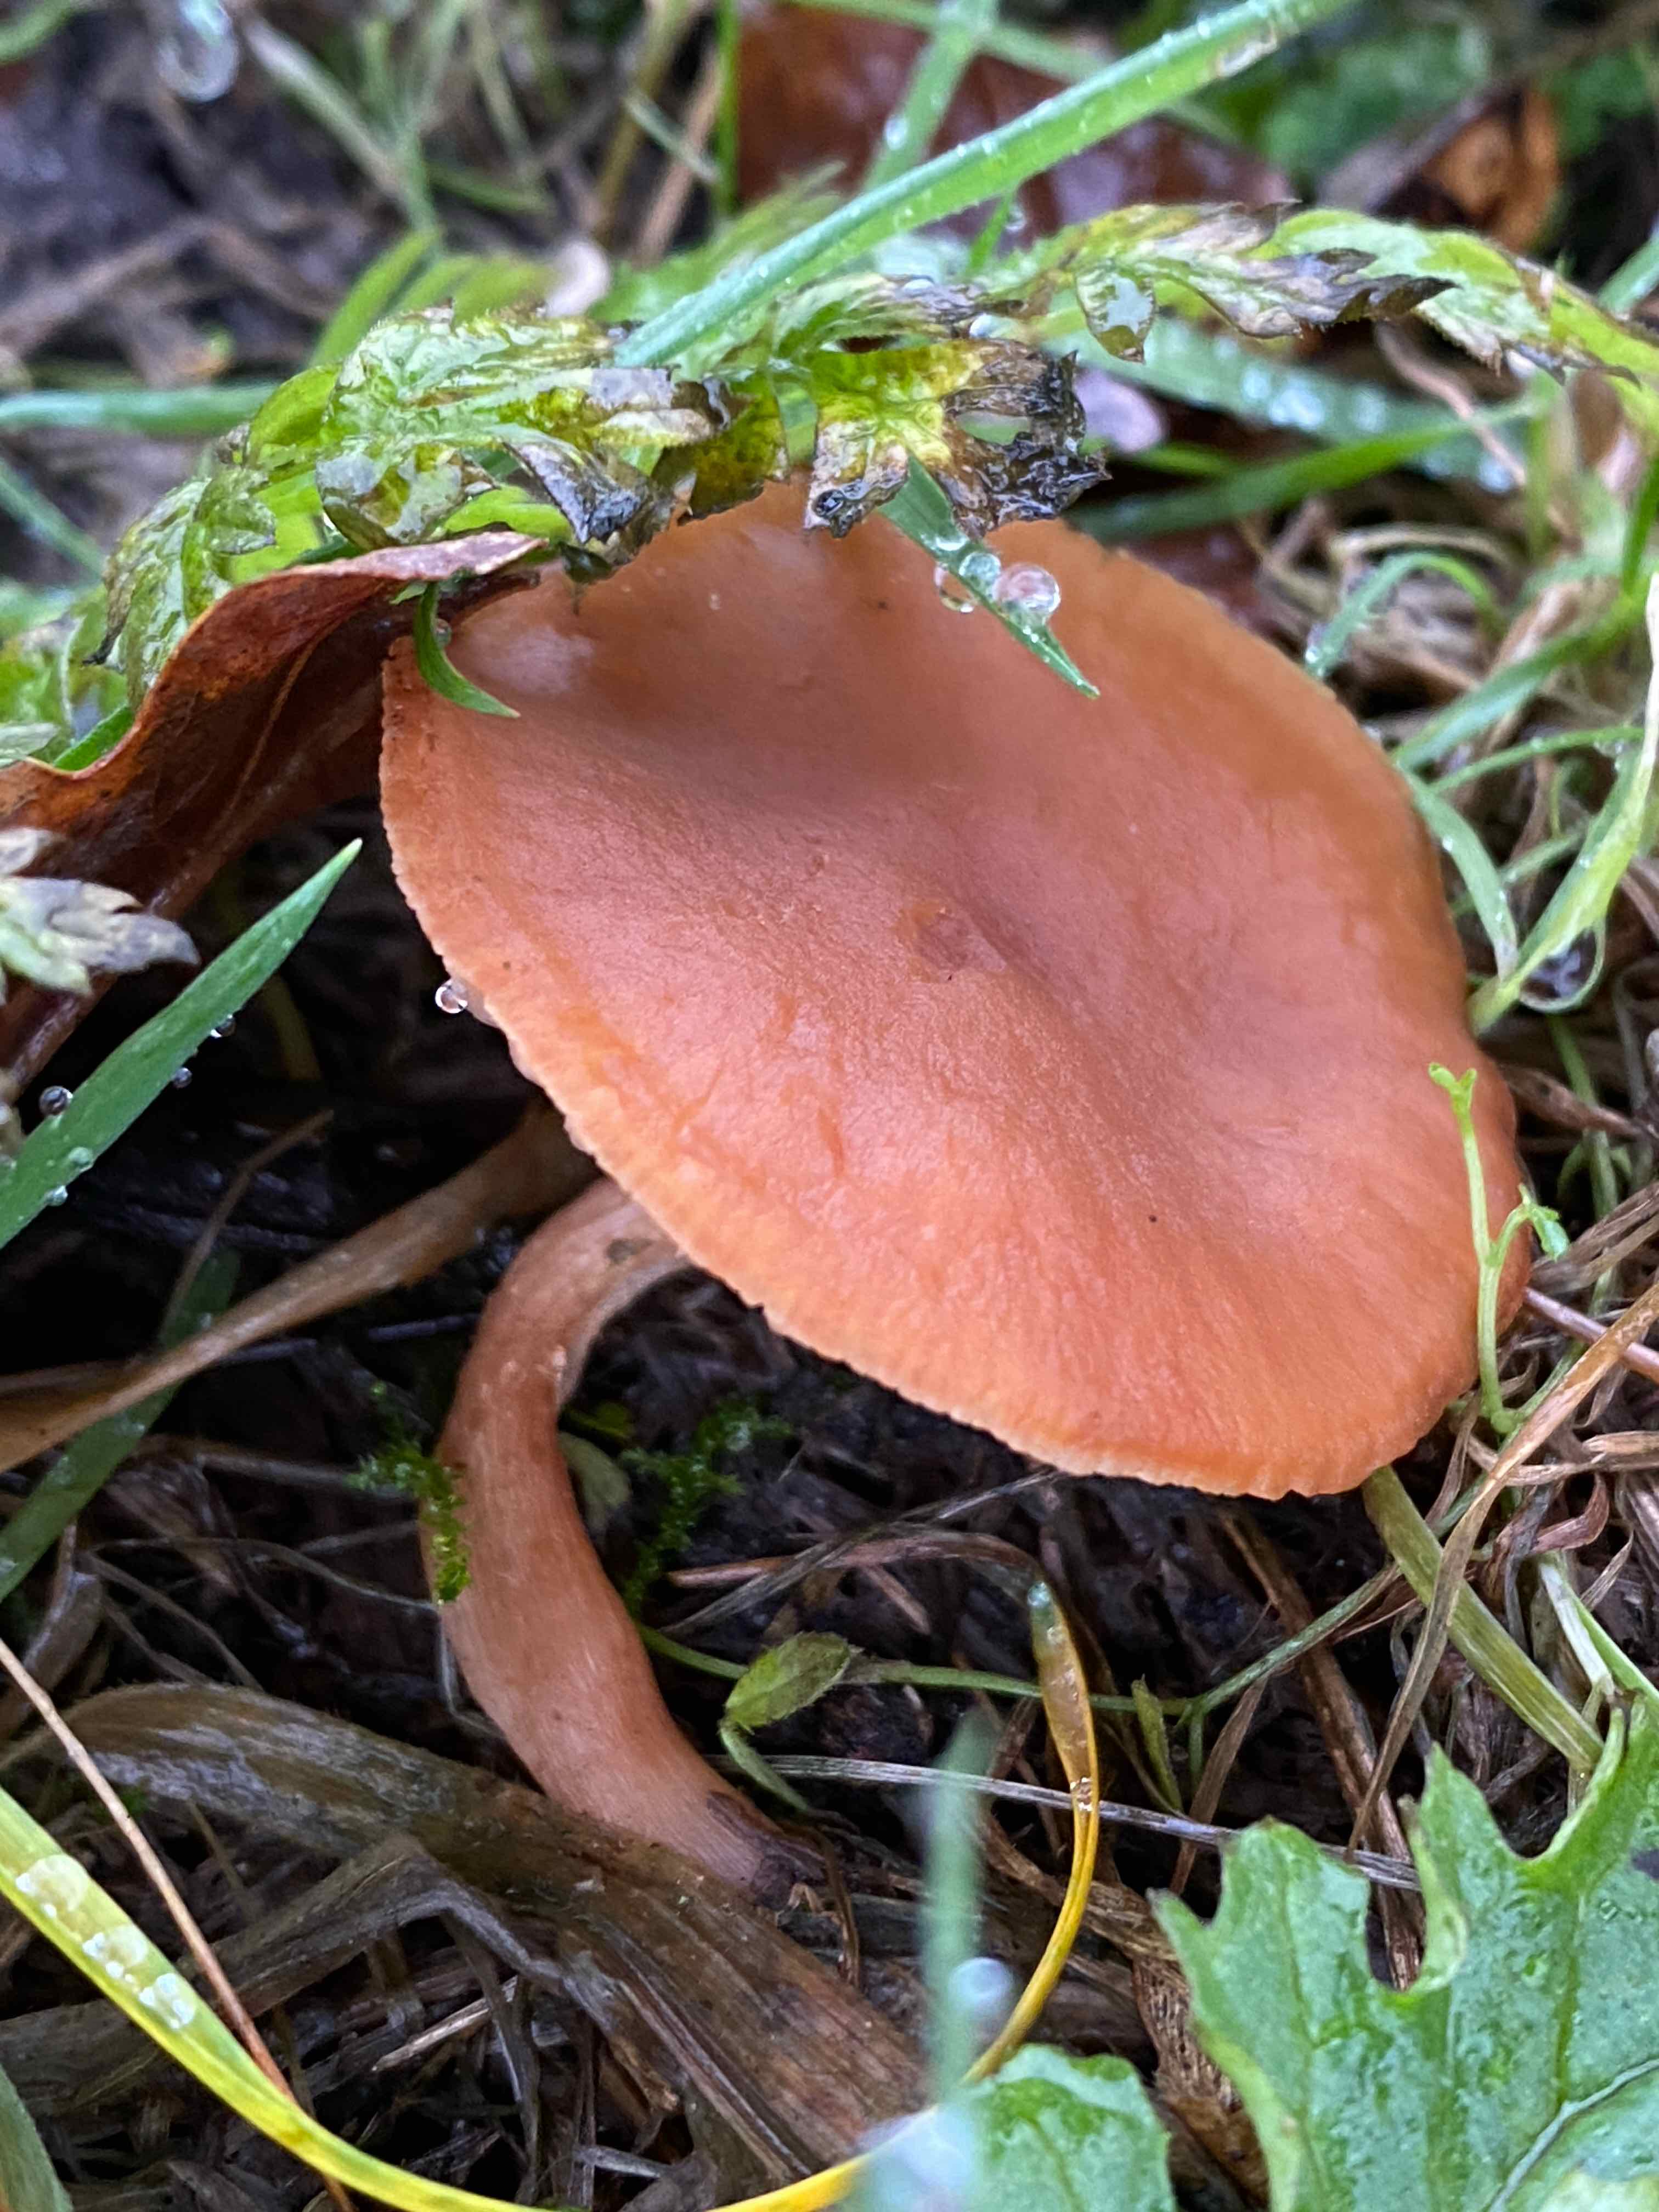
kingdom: Fungi
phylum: Basidiomycota
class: Agaricomycetes
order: Agaricales
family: Tubariaceae
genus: Tubaria
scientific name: Tubaria furfuracea
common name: kliddet fnughat
